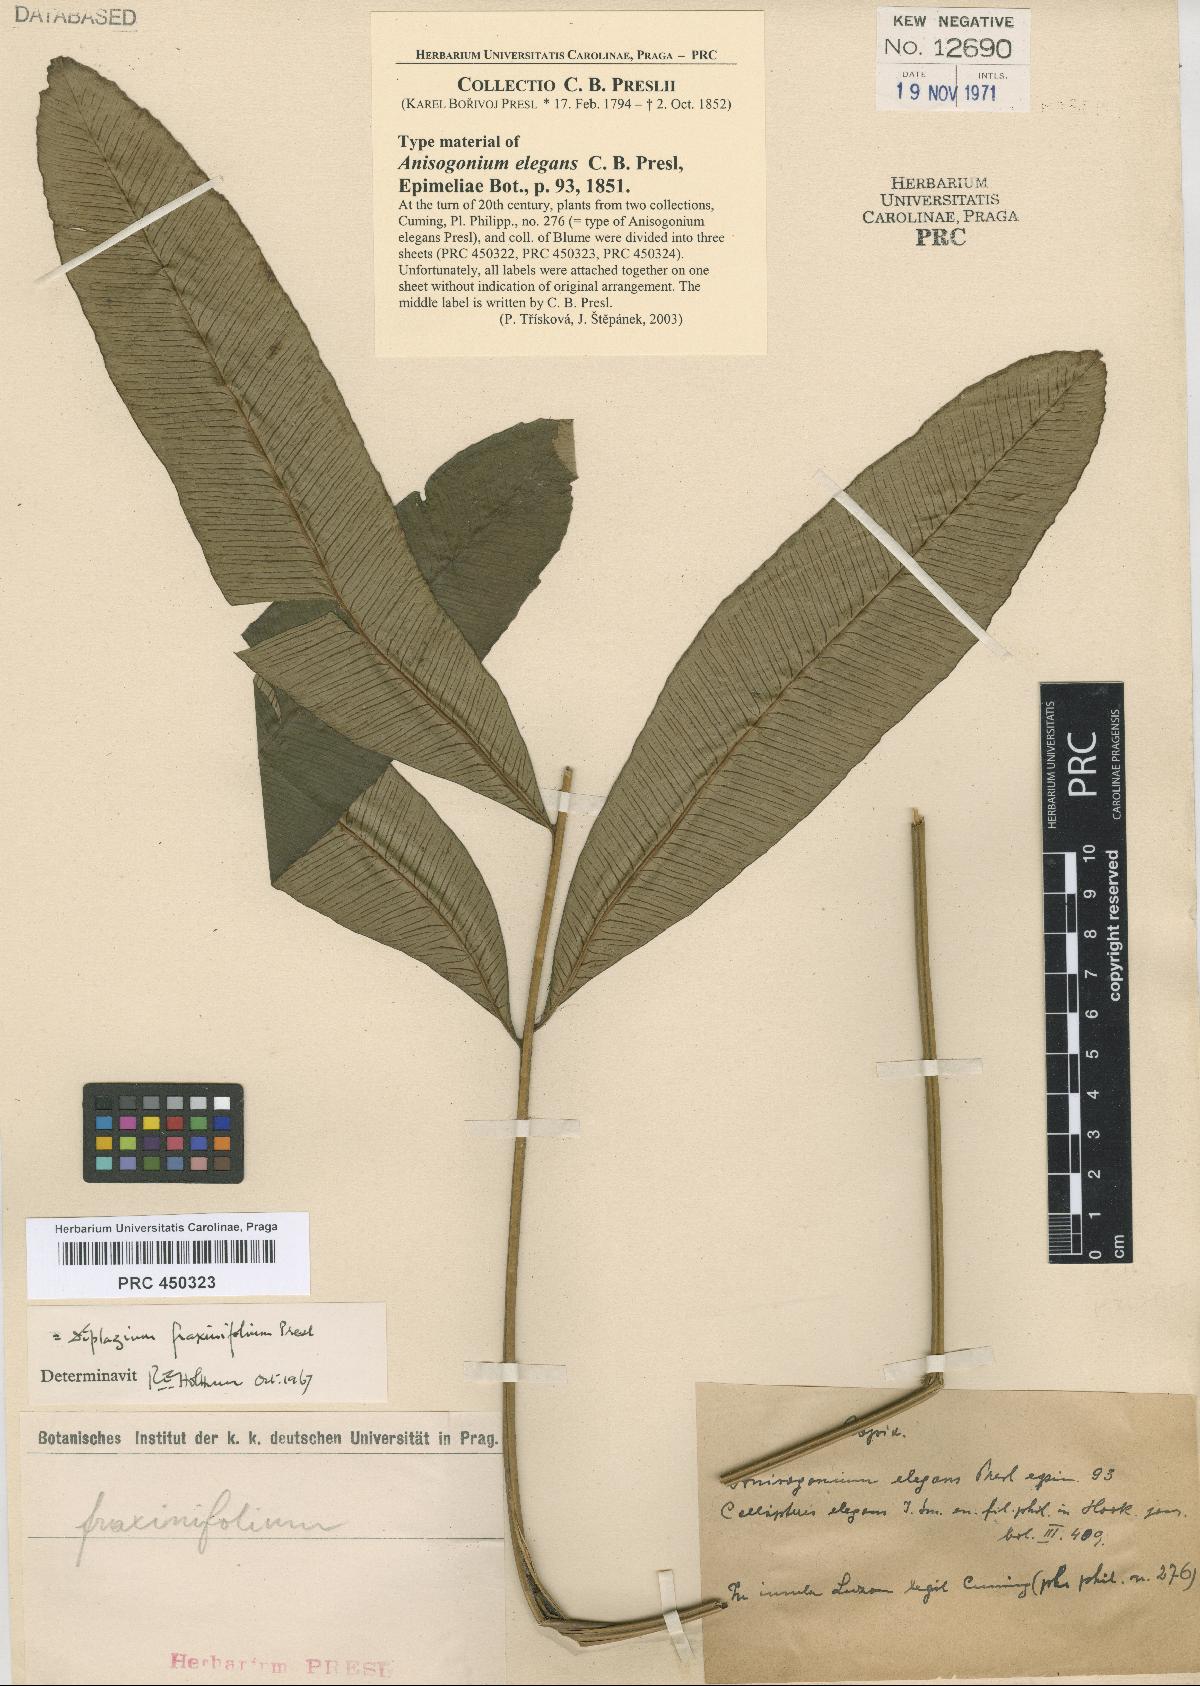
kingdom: Plantae
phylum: Tracheophyta
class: Polypodiopsida
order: Polypodiales
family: Athyriaceae
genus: Diplazium
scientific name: Diplazium fraxinifolium
